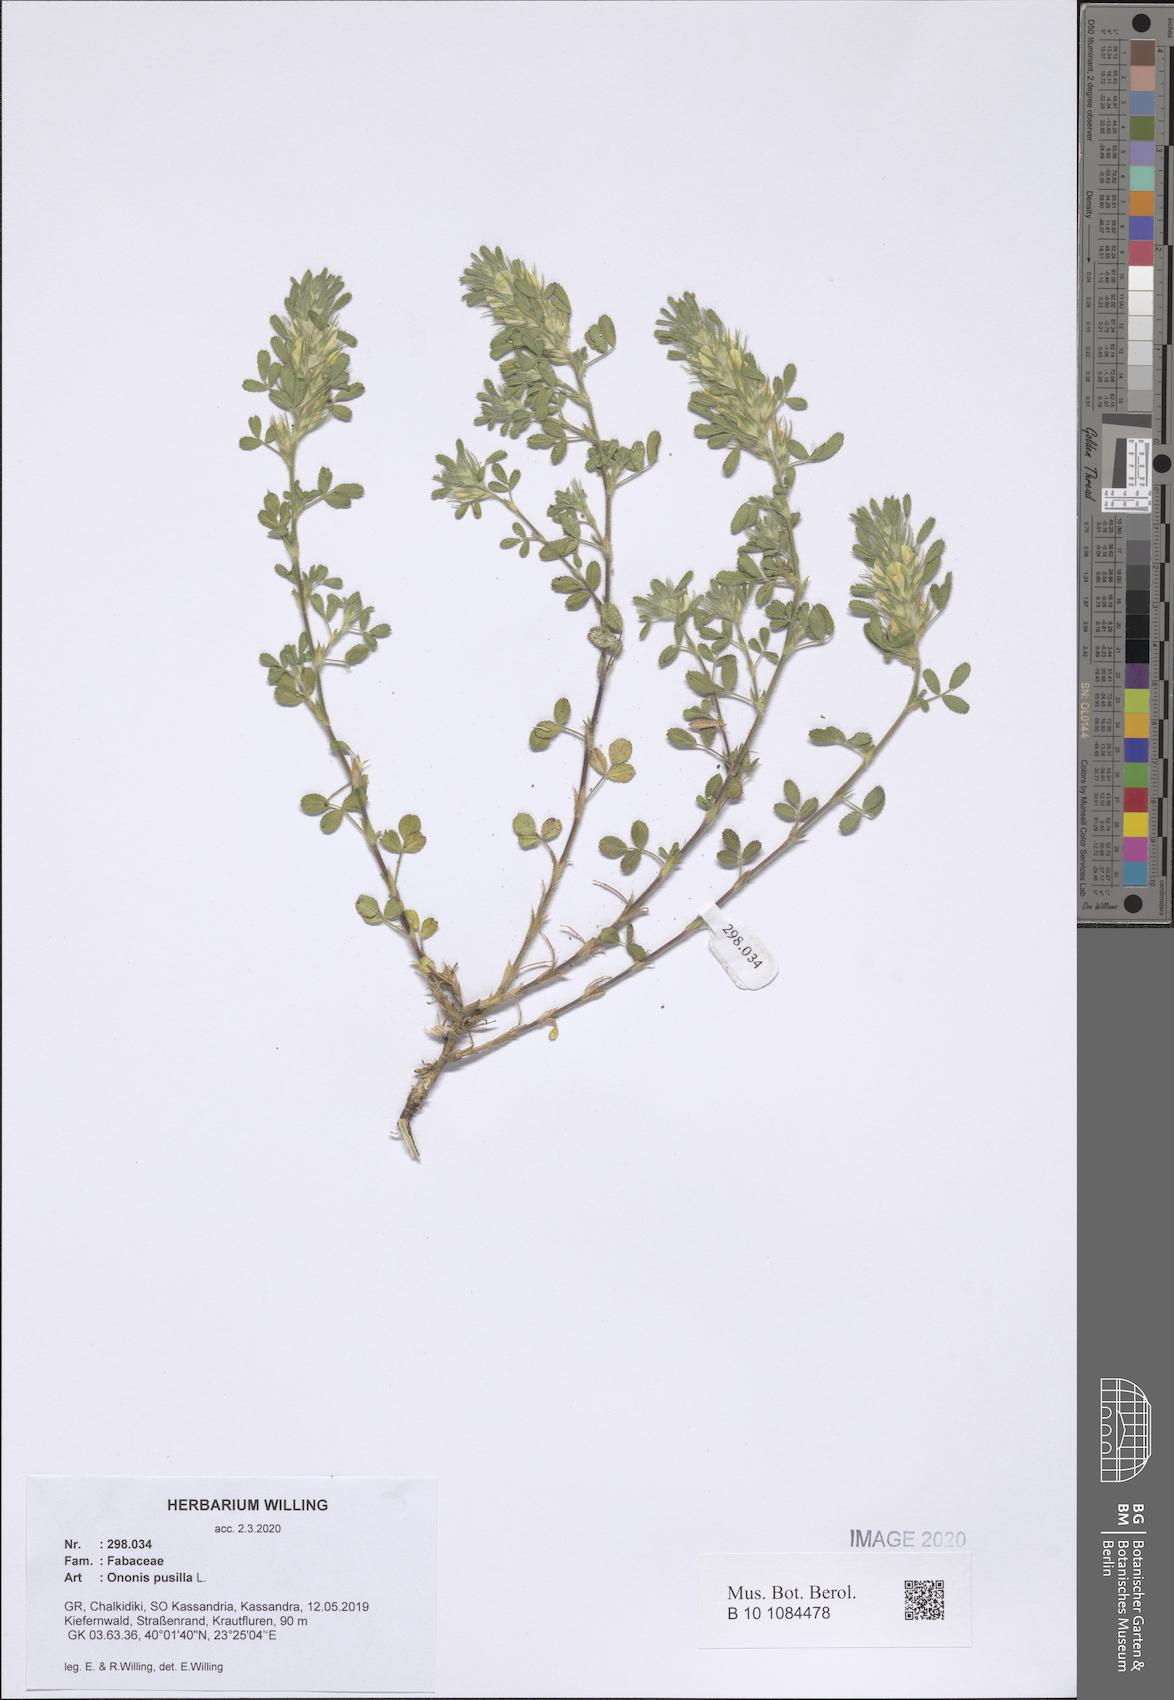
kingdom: Plantae
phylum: Tracheophyta
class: Magnoliopsida
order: Fabales
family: Fabaceae
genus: Ononis
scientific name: Ononis pusilla
